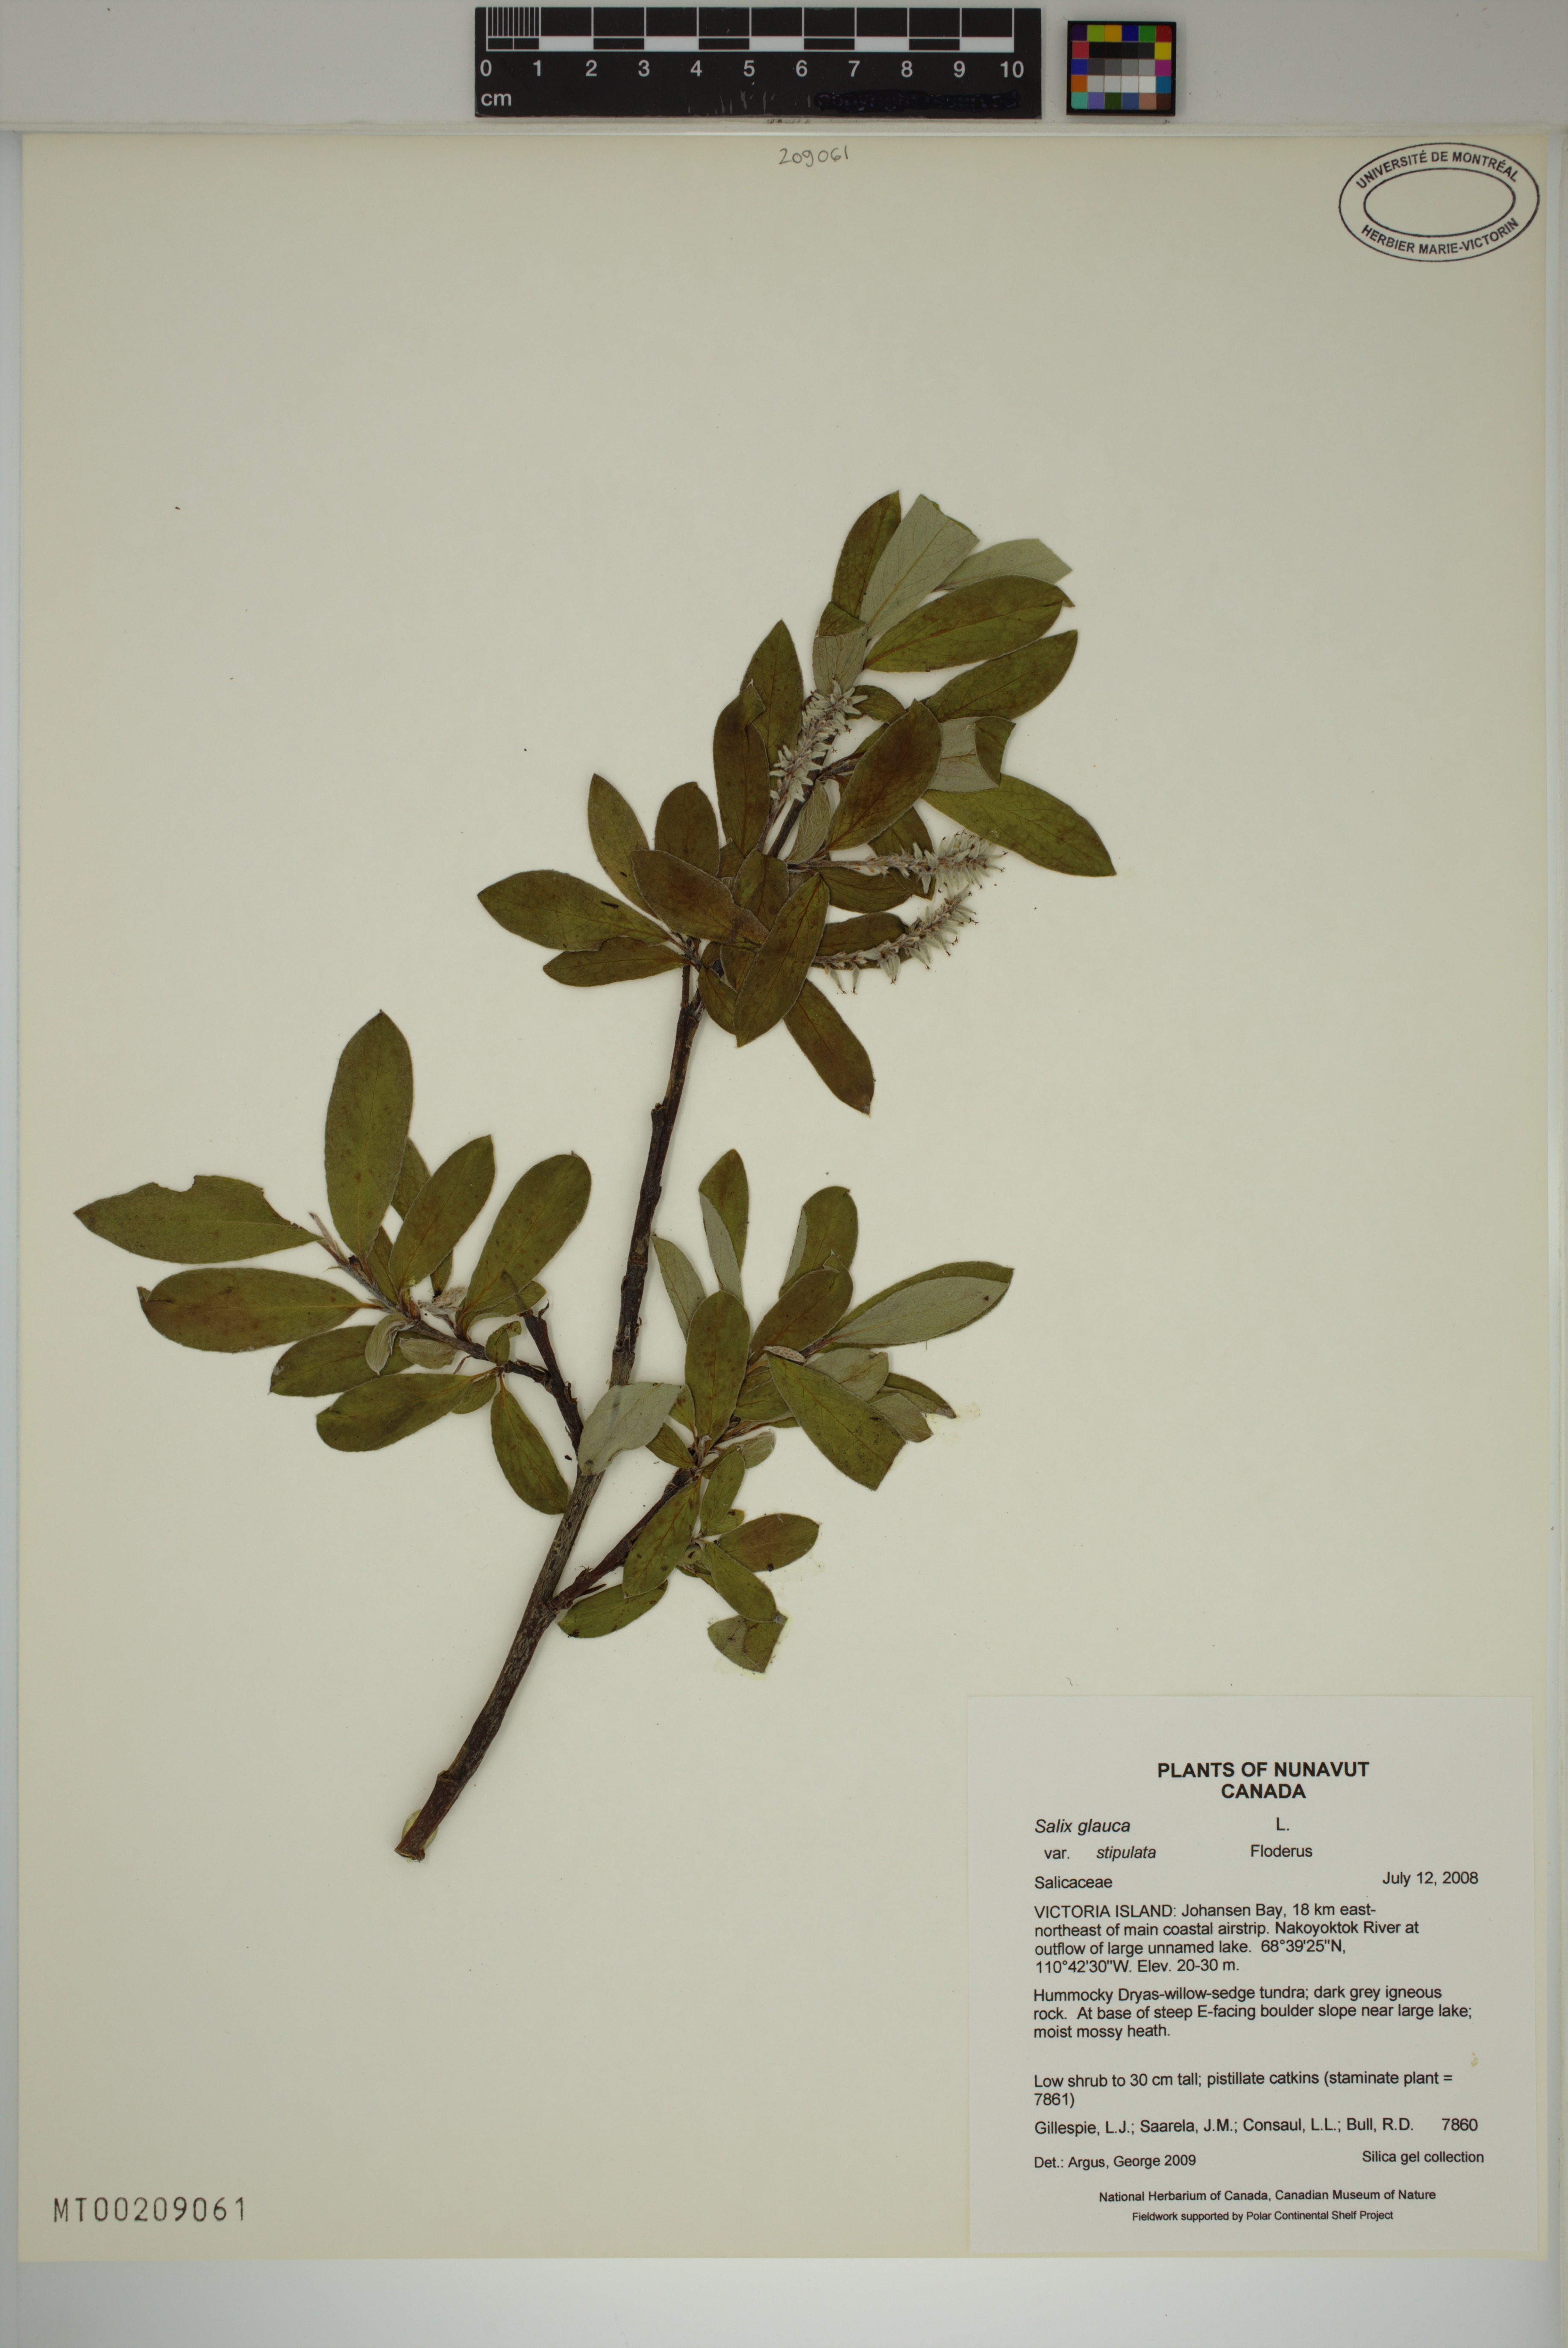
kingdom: Plantae
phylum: Tracheophyta
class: Magnoliopsida
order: Malpighiales
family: Salicaceae
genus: Salix
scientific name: Salix glauca
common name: Glaucous willow
